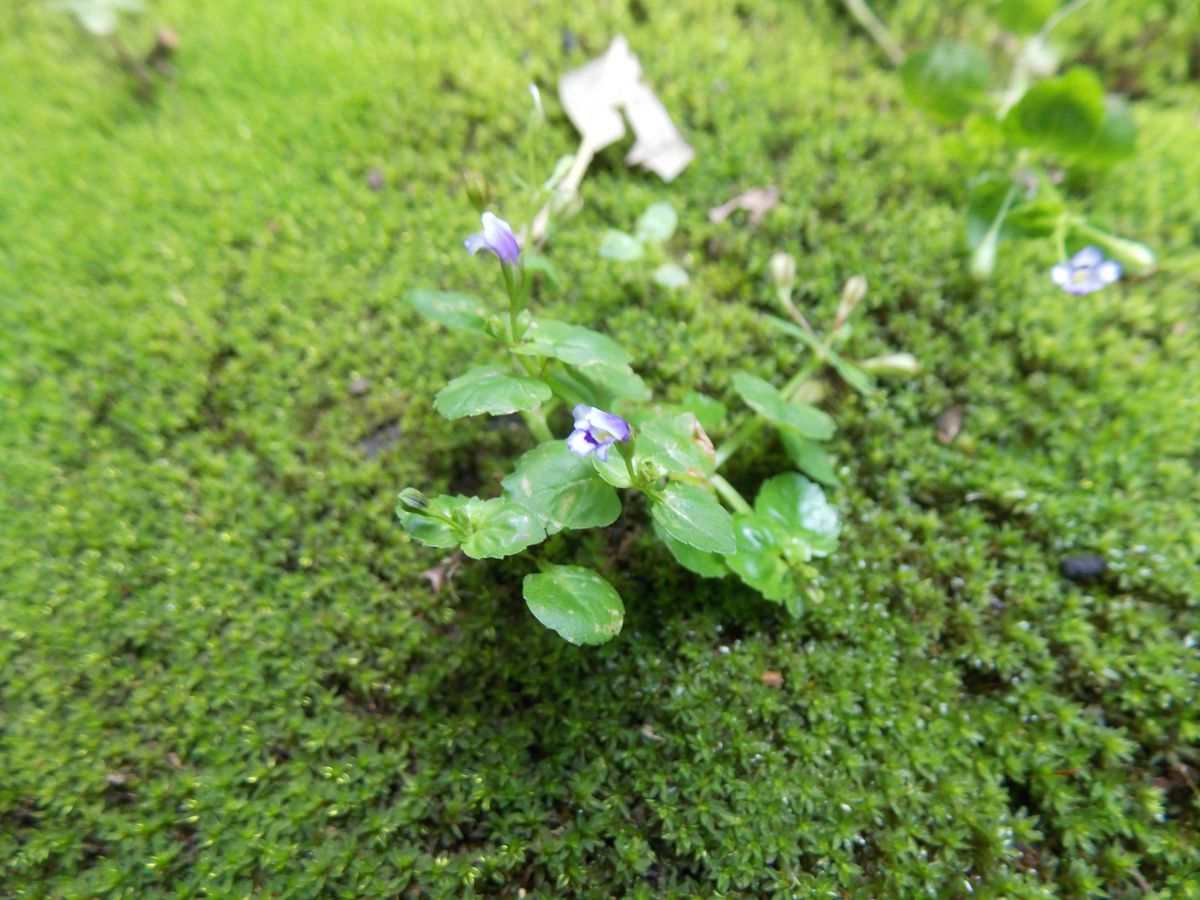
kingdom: Plantae
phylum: Tracheophyta
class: Magnoliopsida
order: Lamiales
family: Plantaginaceae
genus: Mecardonia
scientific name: Mecardonia procumbens
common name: Baby jump-up
